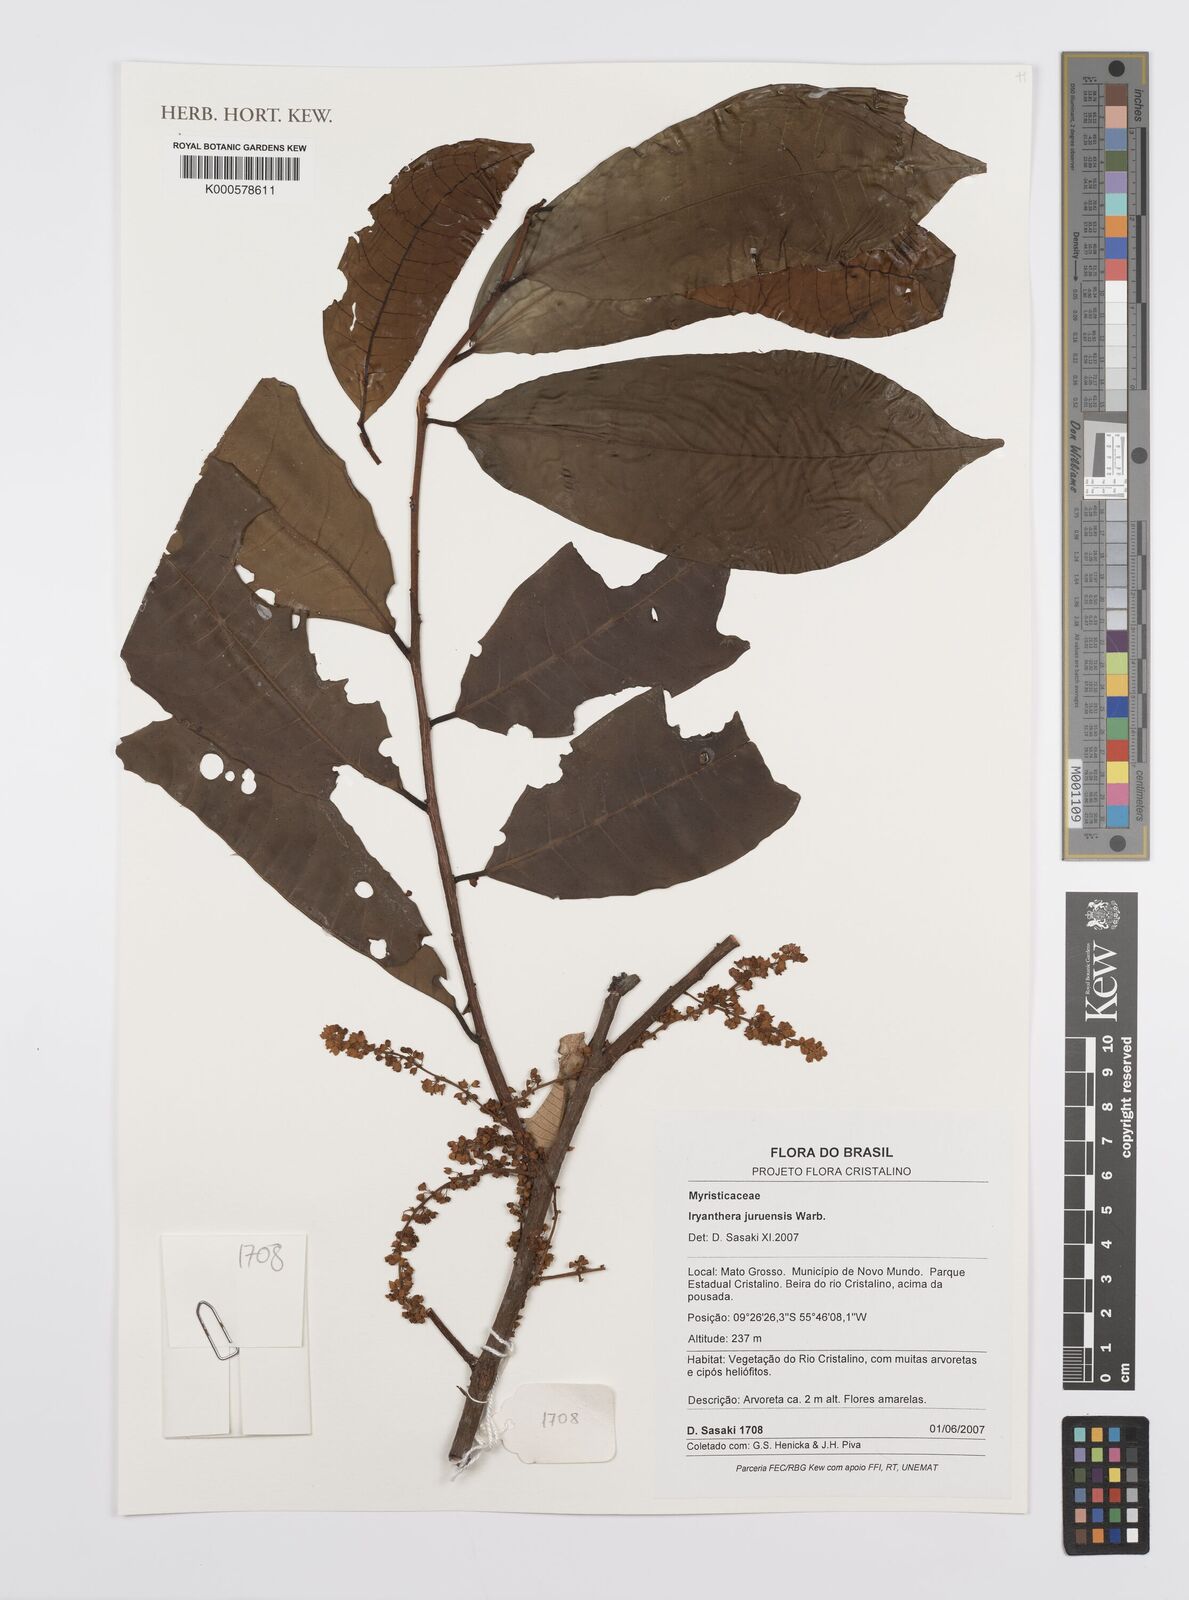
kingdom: Plantae
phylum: Tracheophyta
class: Magnoliopsida
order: Magnoliales
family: Myristicaceae
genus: Iryanthera
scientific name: Iryanthera juruensis
